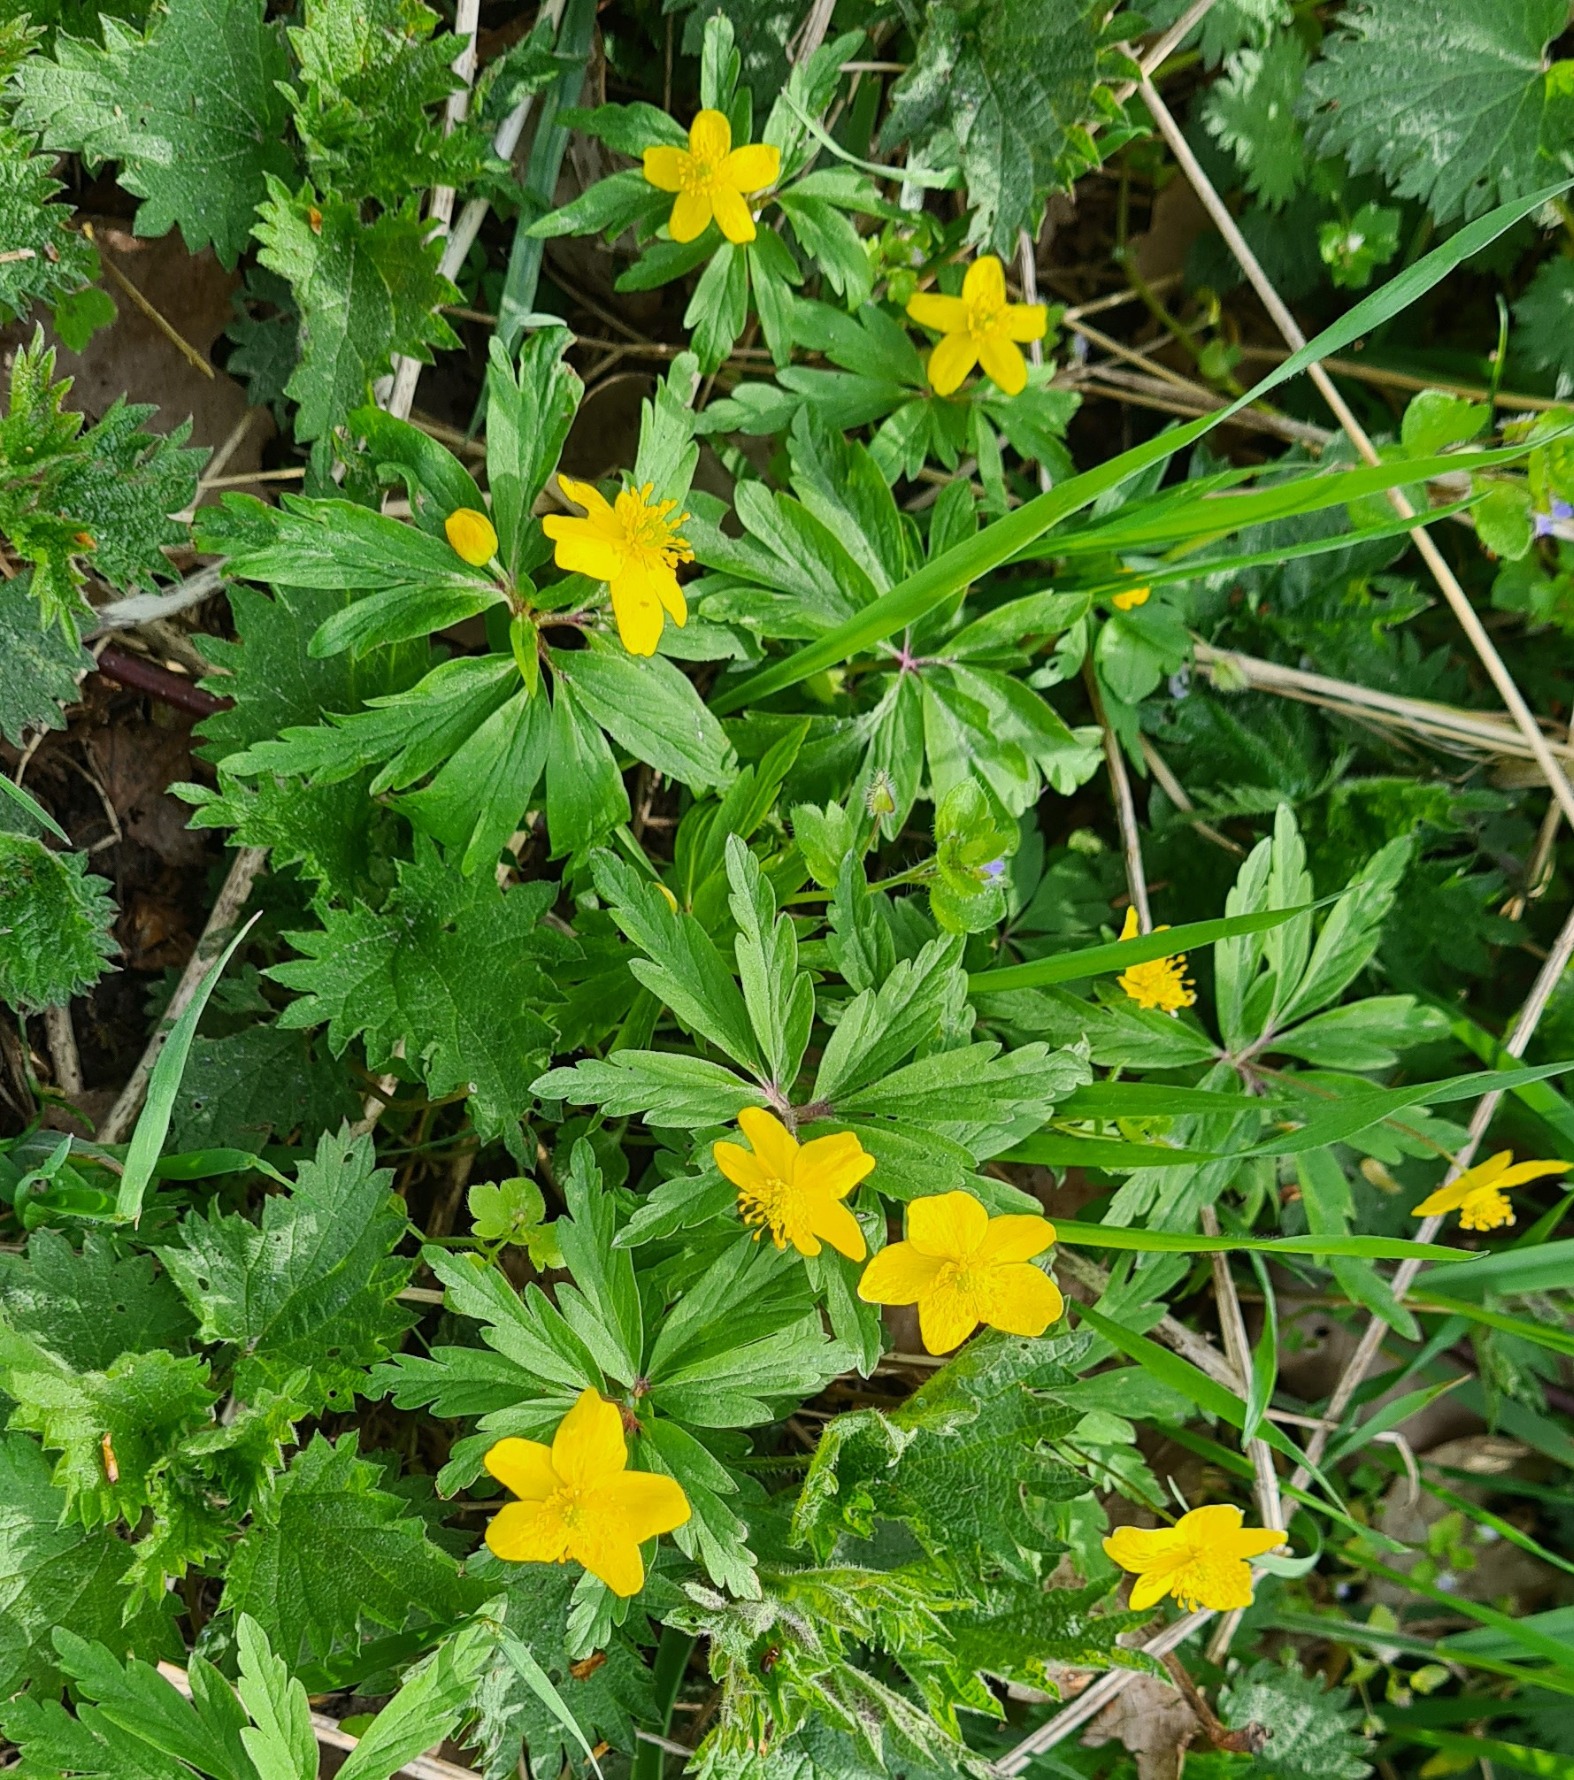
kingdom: Plantae
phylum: Tracheophyta
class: Magnoliopsida
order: Ranunculales
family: Ranunculaceae
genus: Anemone
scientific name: Anemone ranunculoides
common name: Gul anemone
